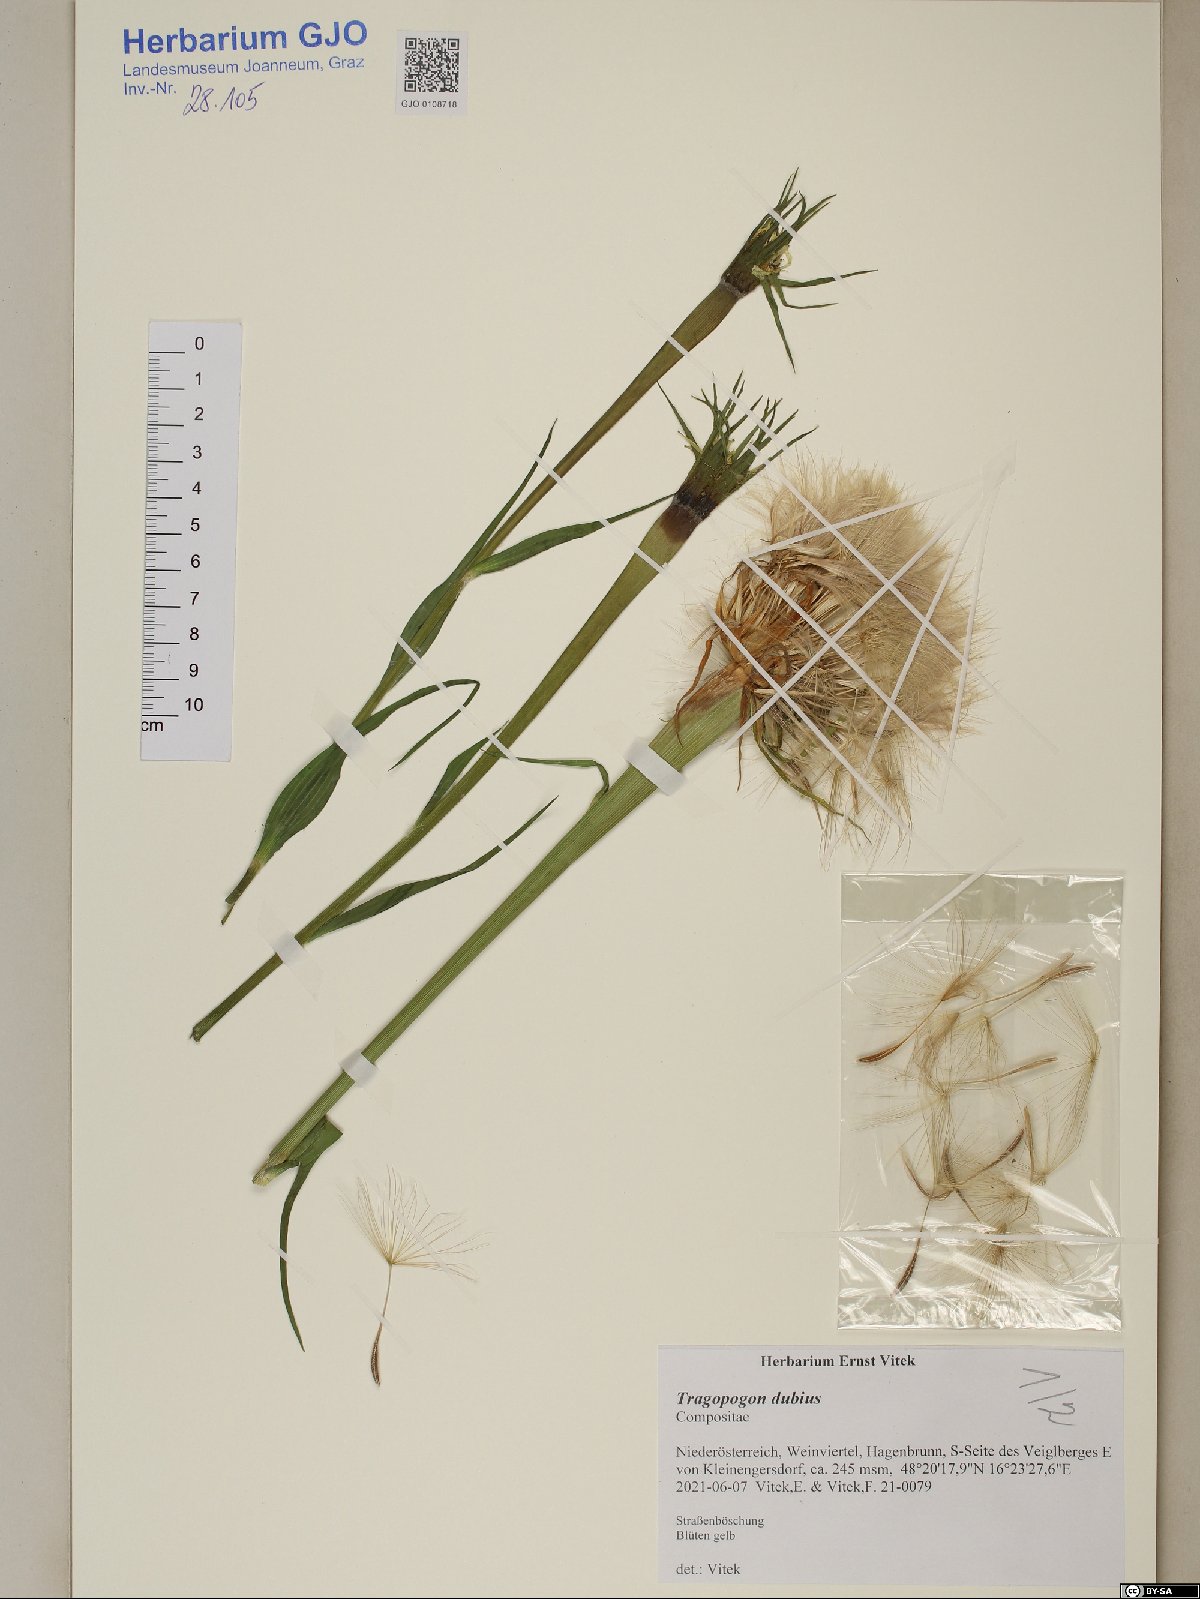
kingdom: Plantae
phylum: Tracheophyta
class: Magnoliopsida
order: Asterales
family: Asteraceae
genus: Tragopogon
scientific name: Tragopogon dubius
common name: Yellow salsify
